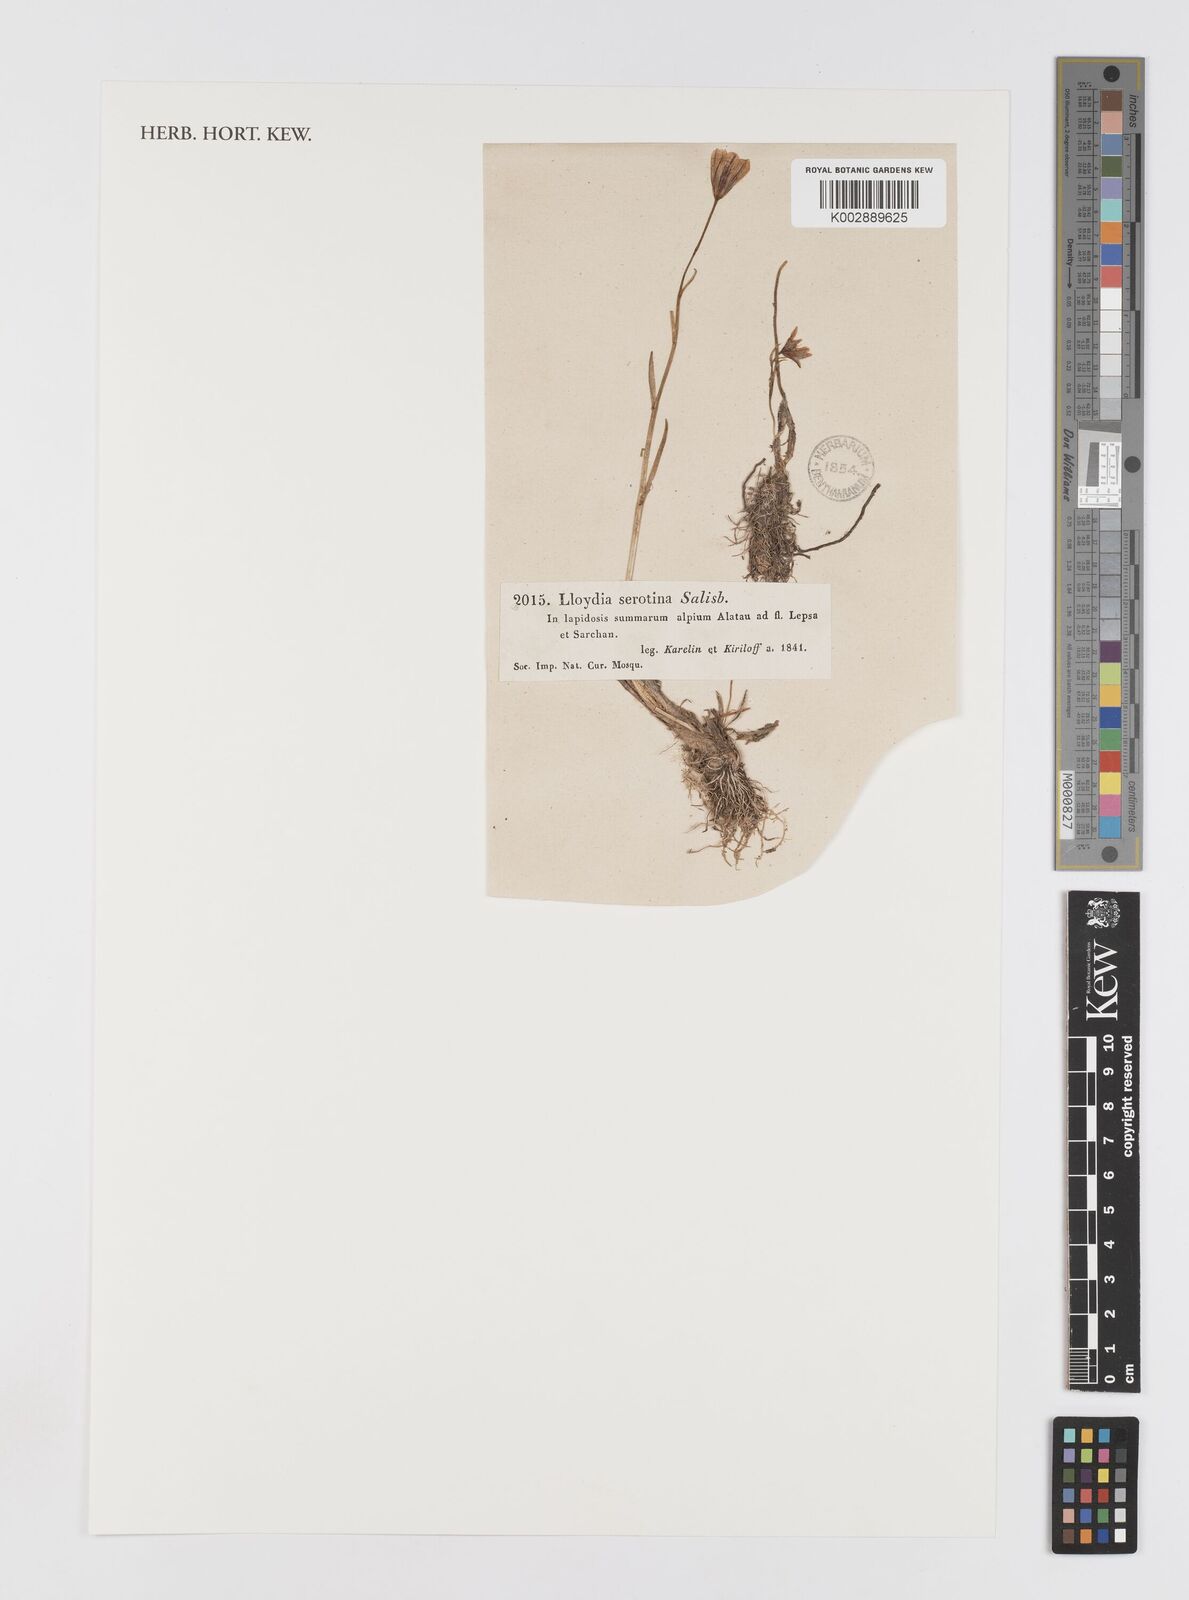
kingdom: Plantae
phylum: Tracheophyta
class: Liliopsida
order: Liliales
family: Liliaceae
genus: Gagea
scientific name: Gagea serotina
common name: Snowdon lily
